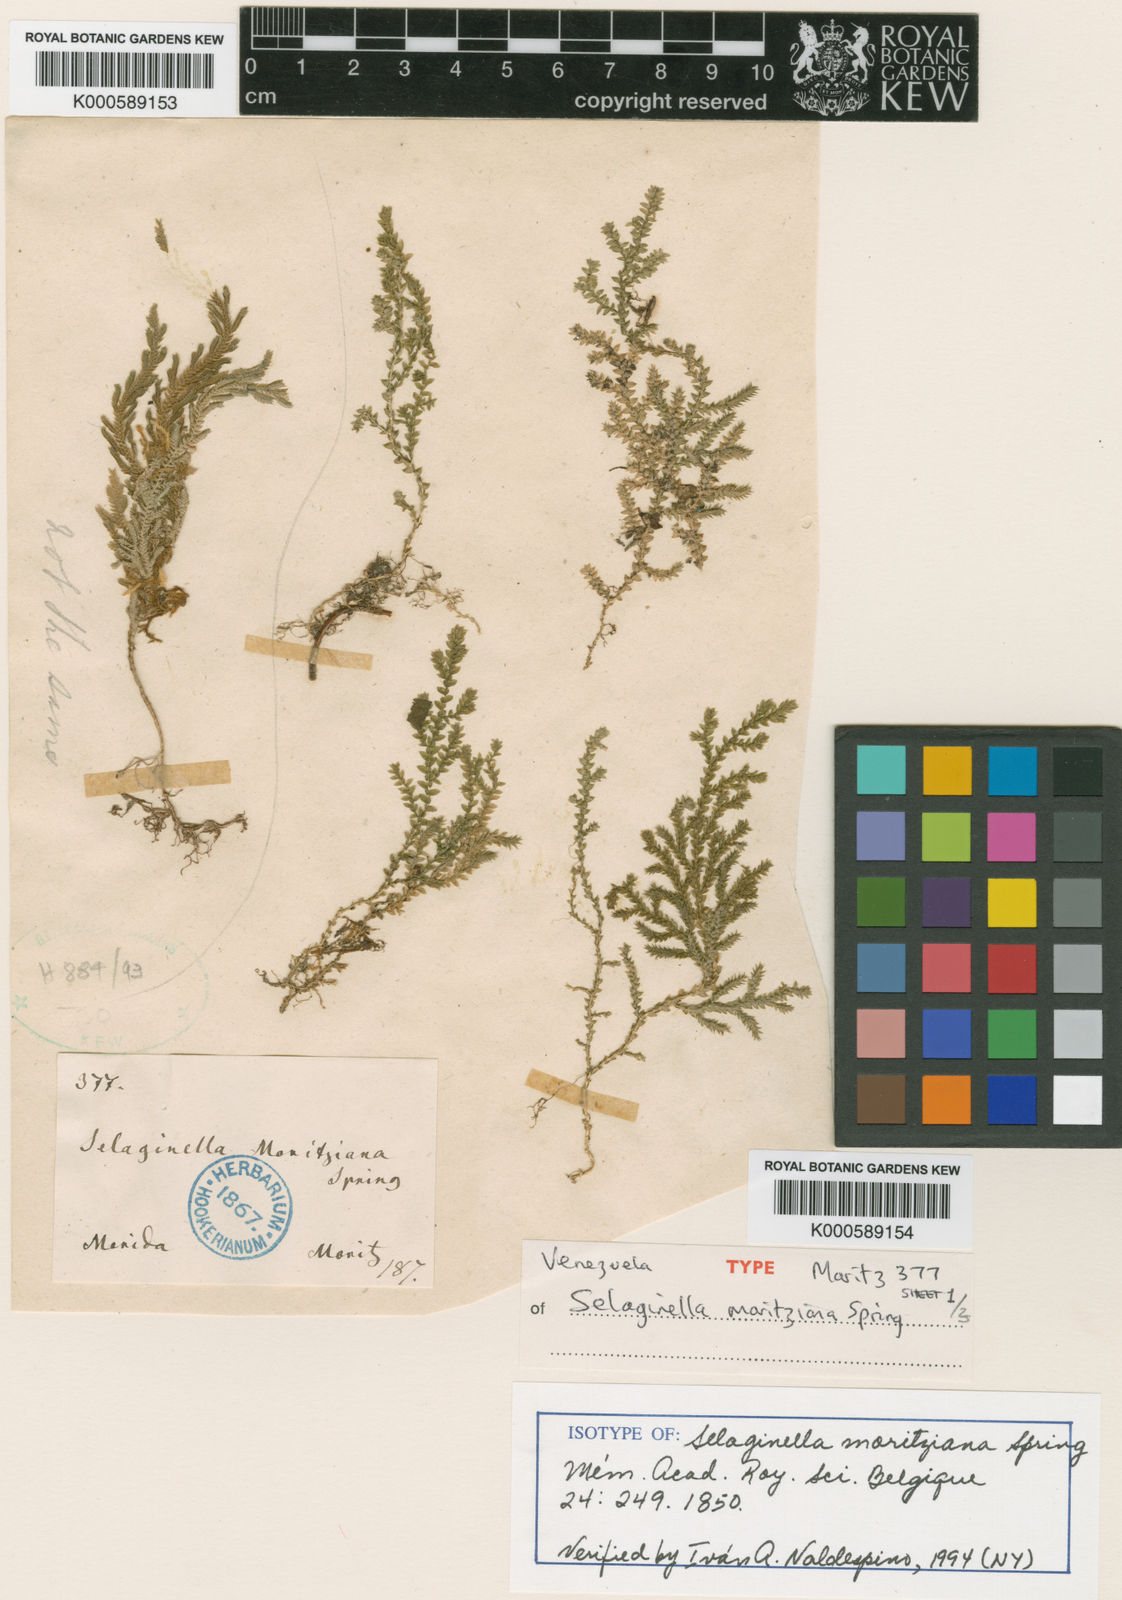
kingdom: Plantae
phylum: Tracheophyta
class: Lycopodiopsida
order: Selaginellales
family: Selaginellaceae
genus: Selaginella
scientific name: Selaginella
